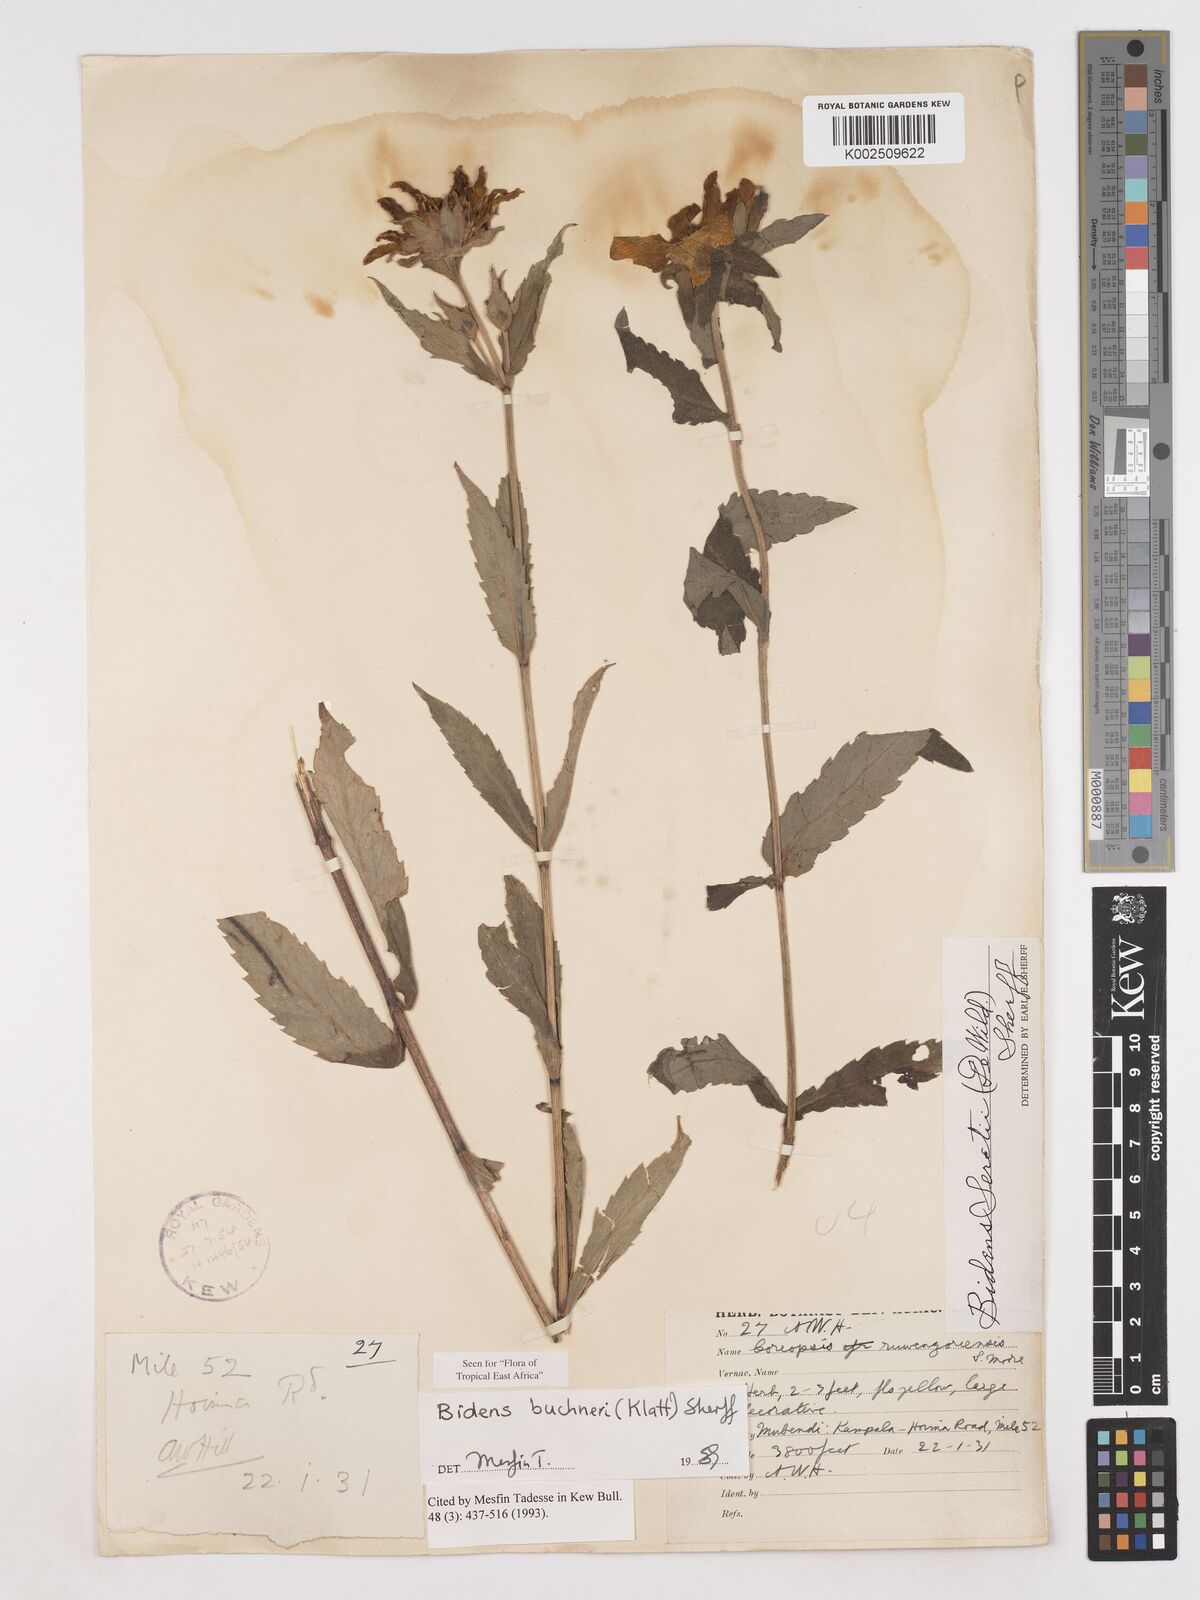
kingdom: Plantae
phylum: Tracheophyta
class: Magnoliopsida
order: Asterales
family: Asteraceae
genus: Bidens
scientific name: Bidens buchneri
